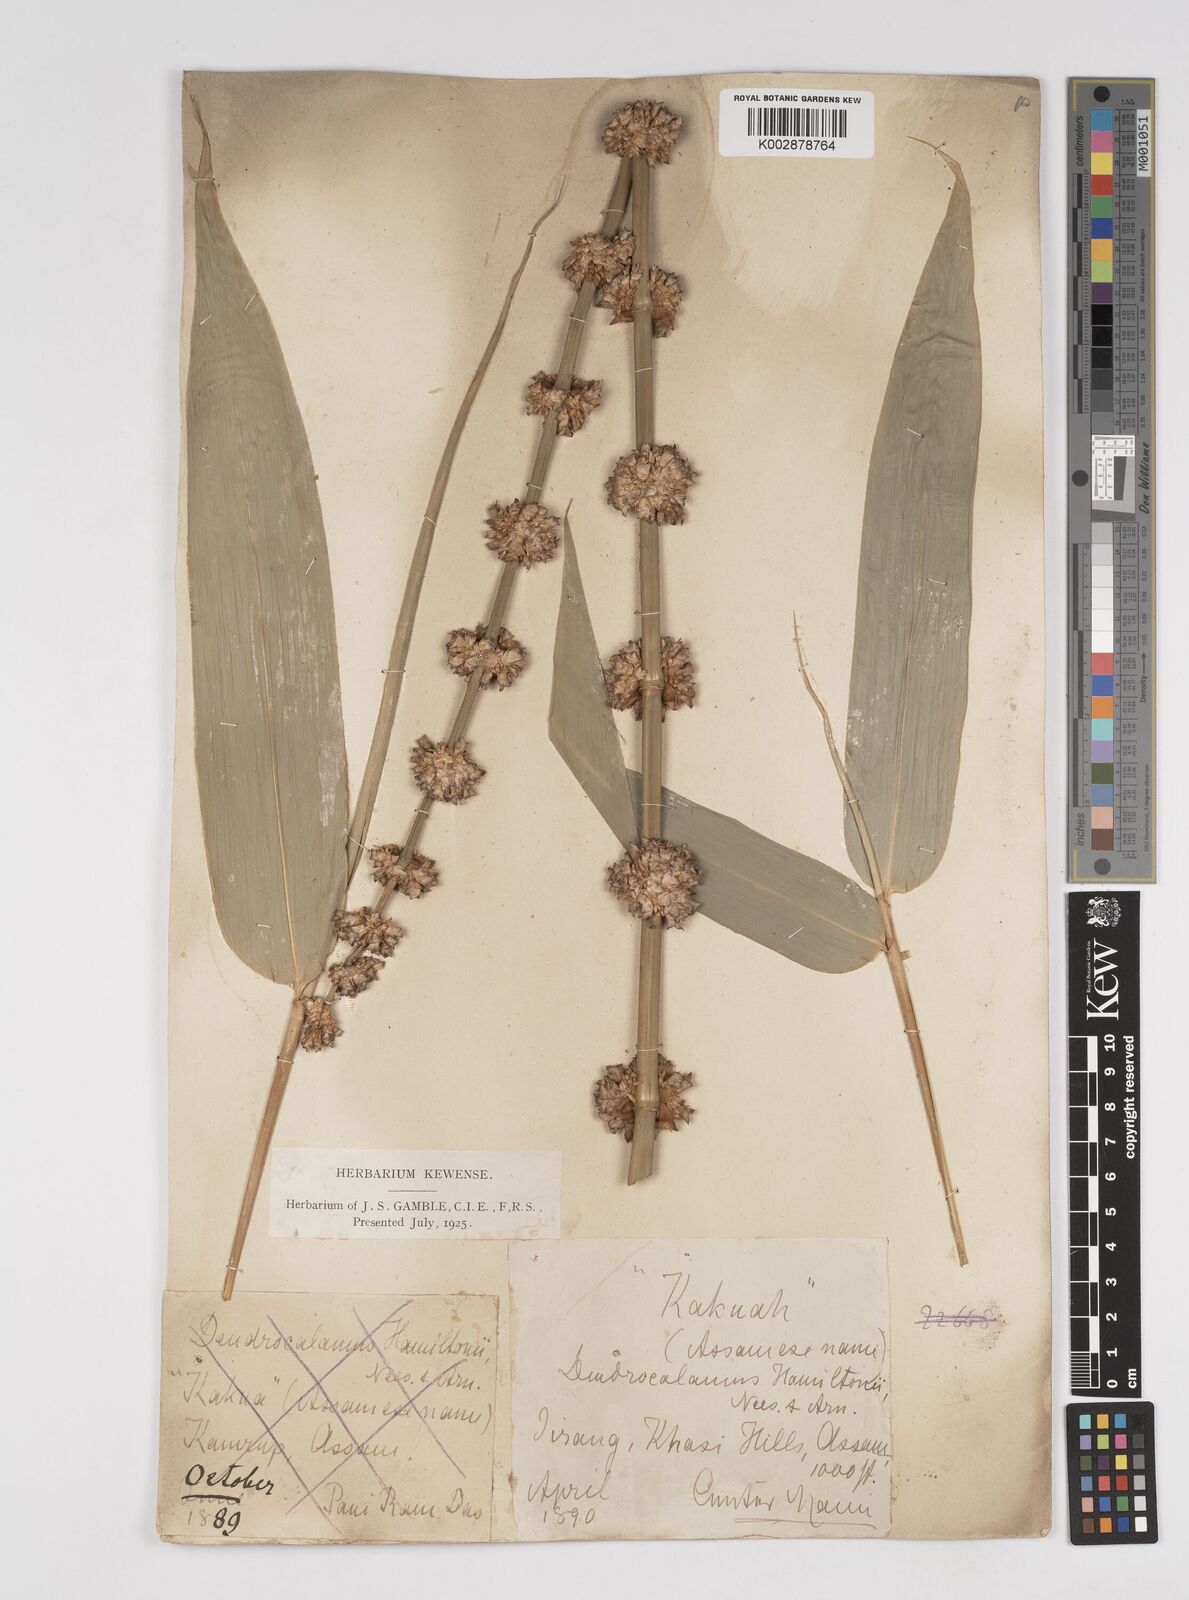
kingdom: Plantae
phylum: Tracheophyta
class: Liliopsida
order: Poales
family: Poaceae
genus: Dendrocalamus
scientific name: Dendrocalamus hamiltonii
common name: Tama bamboo
